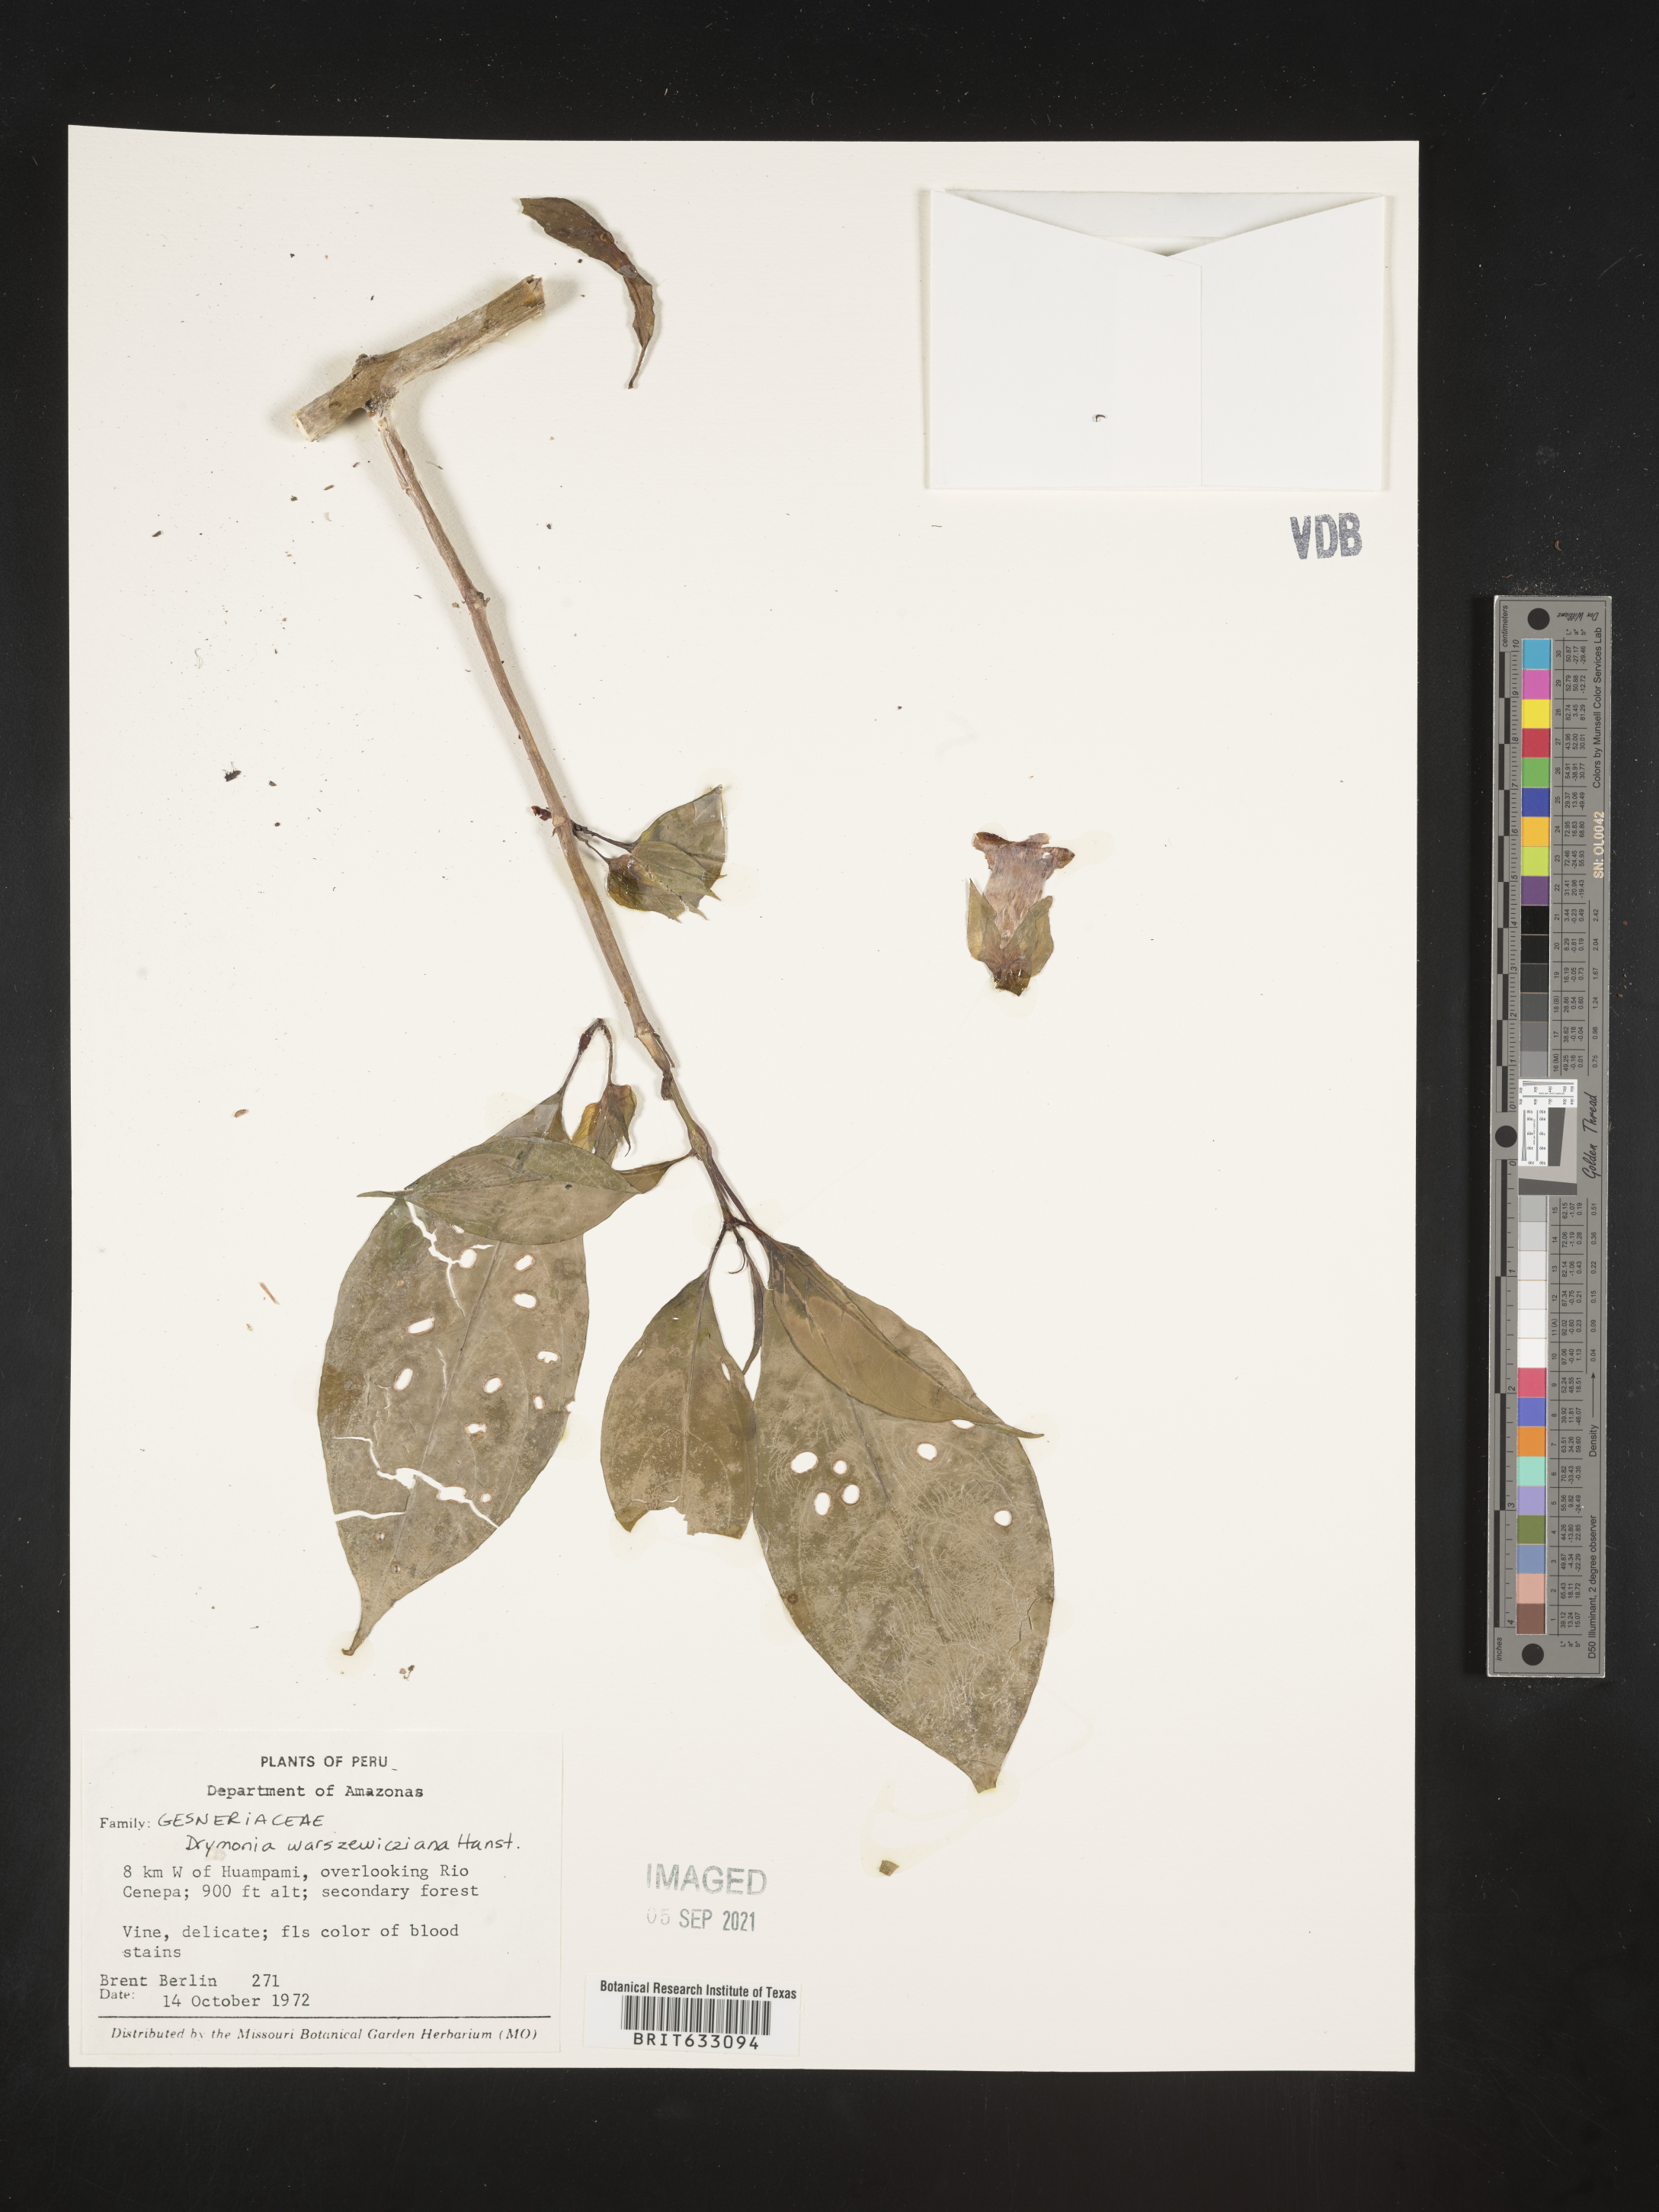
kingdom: Plantae
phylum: Tracheophyta
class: Magnoliopsida
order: Lamiales
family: Gesneriaceae
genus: Drymonia
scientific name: Drymonia
